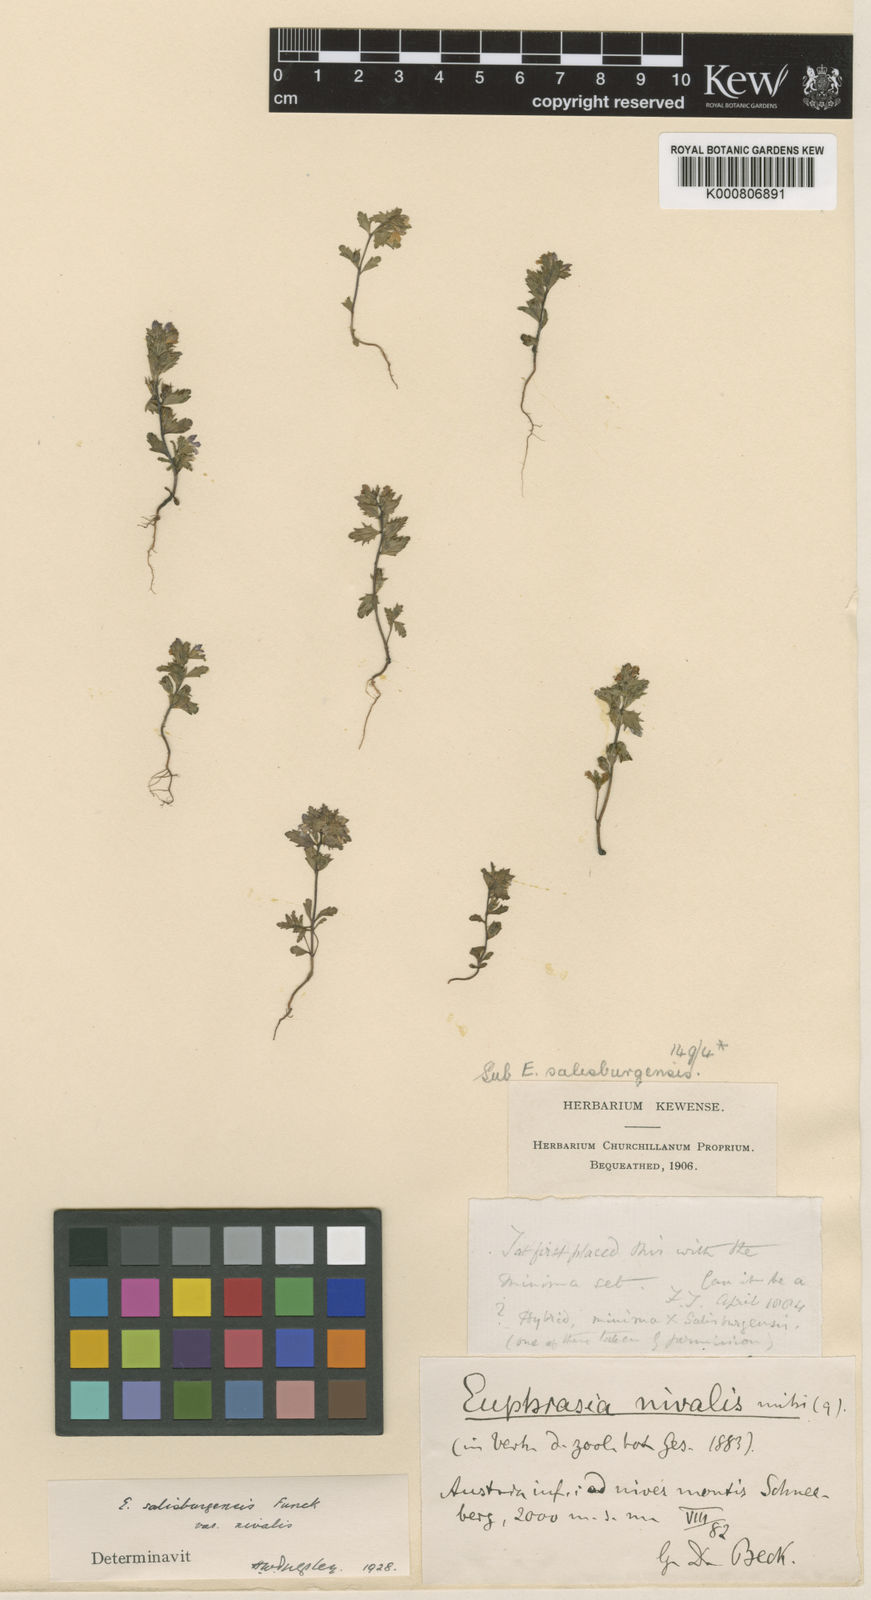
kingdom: Plantae
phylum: Tracheophyta
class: Magnoliopsida
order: Lamiales
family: Orobanchaceae
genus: Euphrasia
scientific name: Euphrasia salisburgensis
